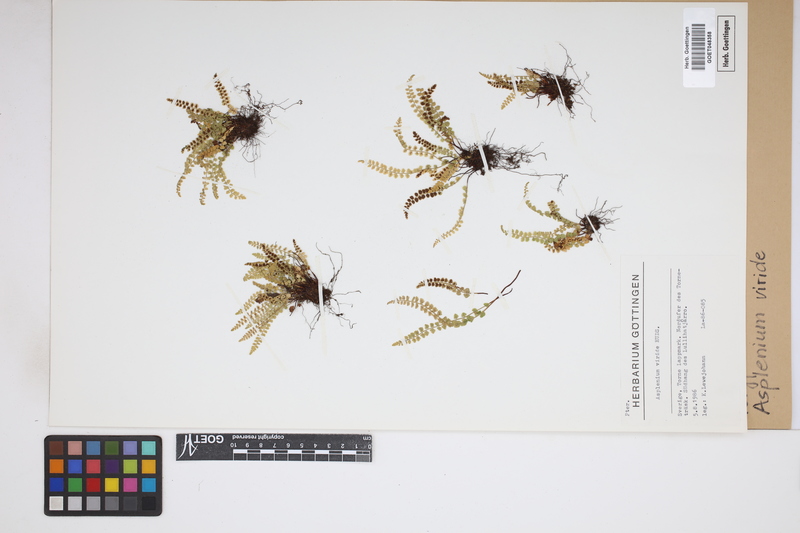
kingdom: Plantae
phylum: Tracheophyta
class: Polypodiopsida
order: Polypodiales
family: Aspleniaceae
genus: Asplenium
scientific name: Asplenium viride
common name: Green spleenwort
